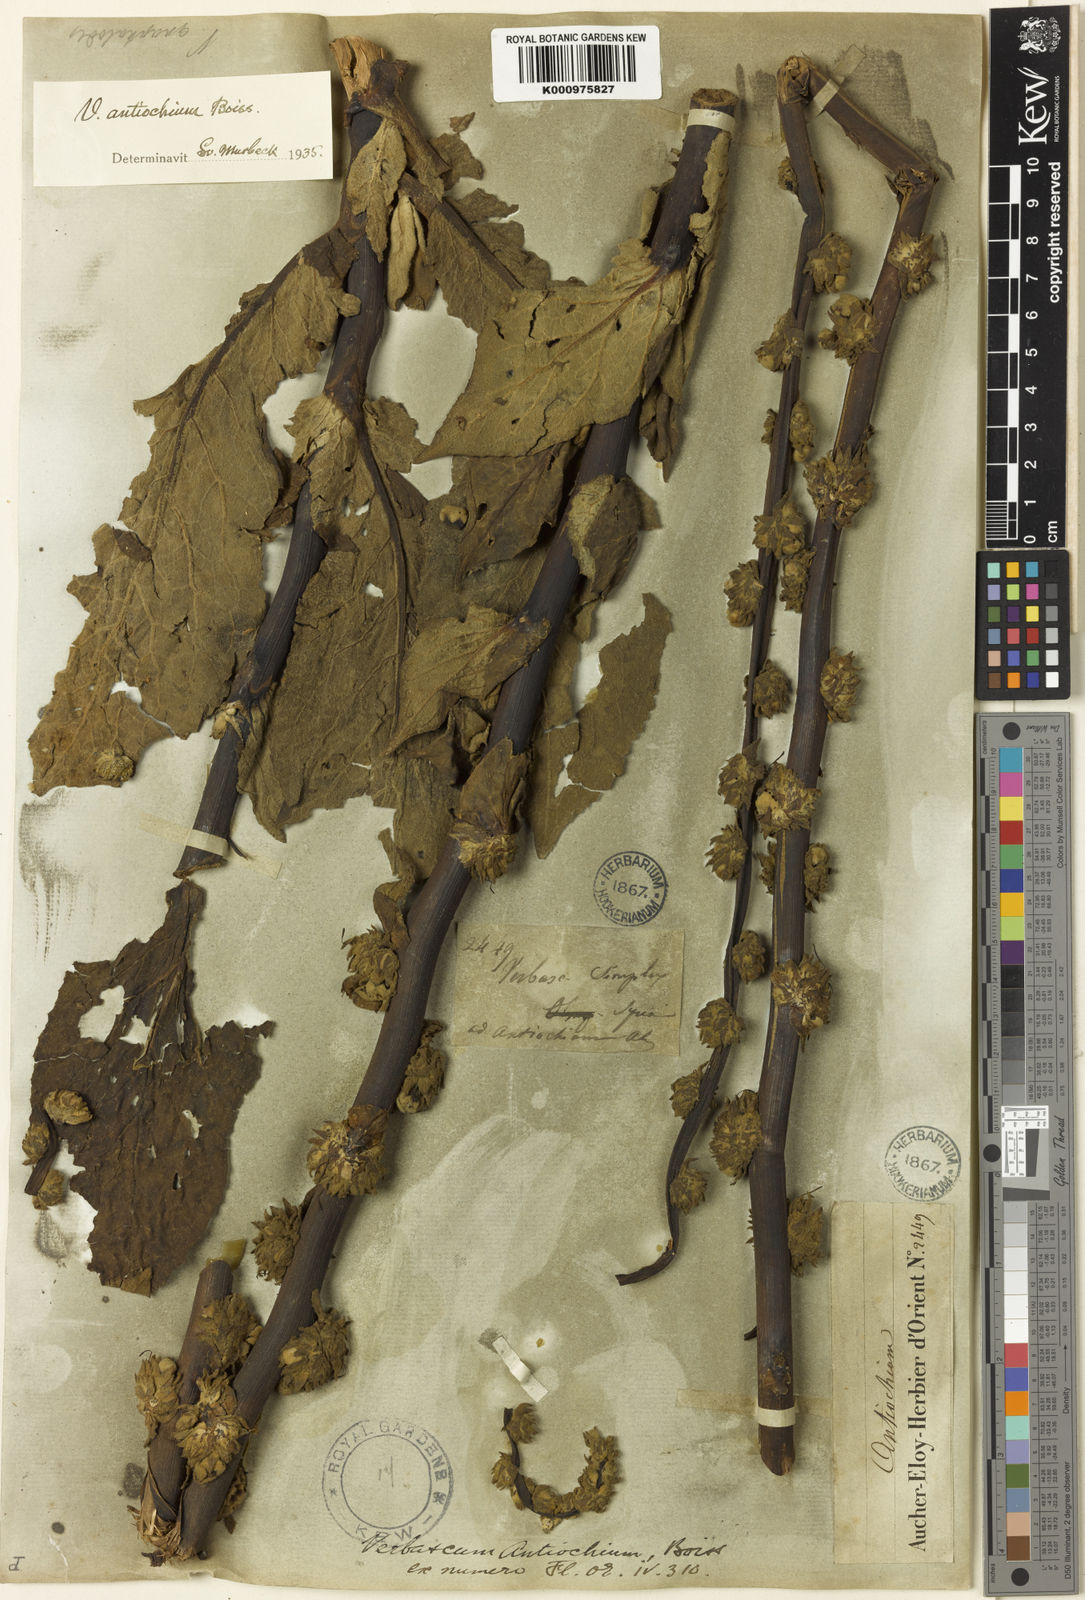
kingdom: Plantae
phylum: Tracheophyta
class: Magnoliopsida
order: Lamiales
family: Scrophulariaceae
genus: Verbascum
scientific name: Verbascum antiochium
